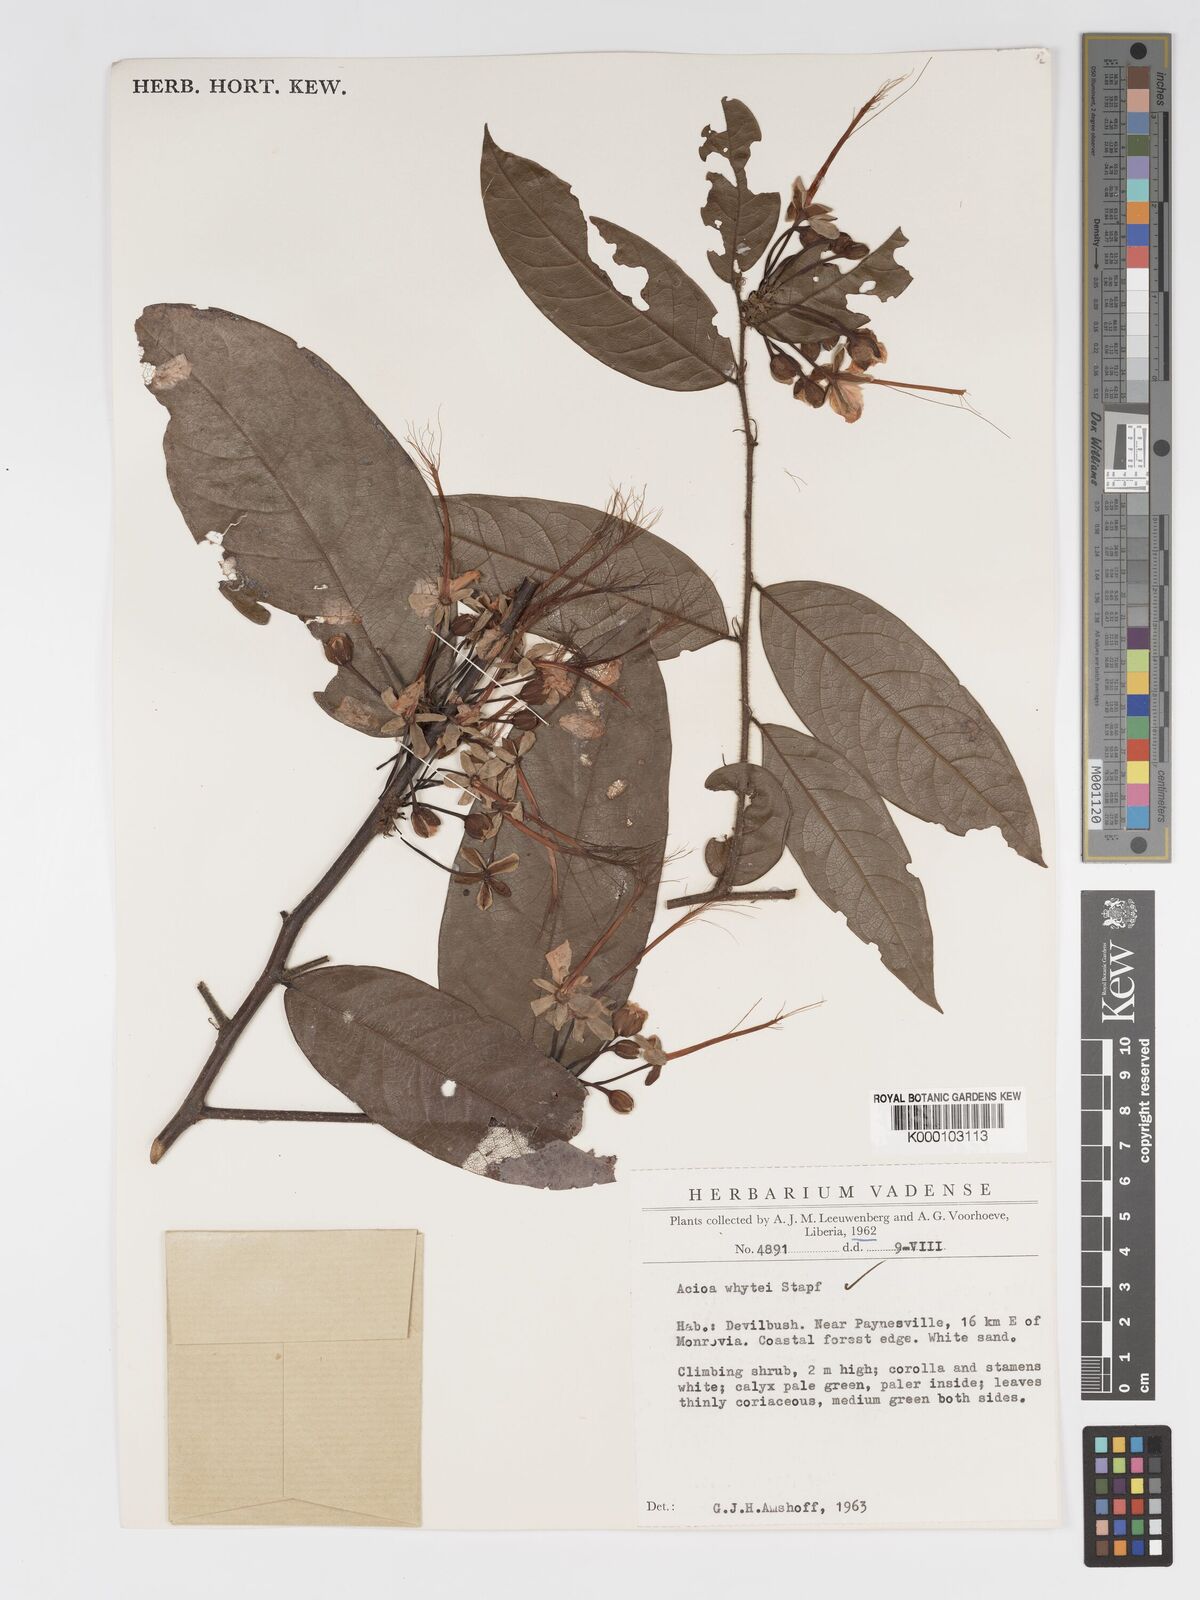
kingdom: Plantae
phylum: Tracheophyta
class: Magnoliopsida
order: Malpighiales
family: Chrysobalanaceae
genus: Dactyladenia
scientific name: Dactyladenia whytei
